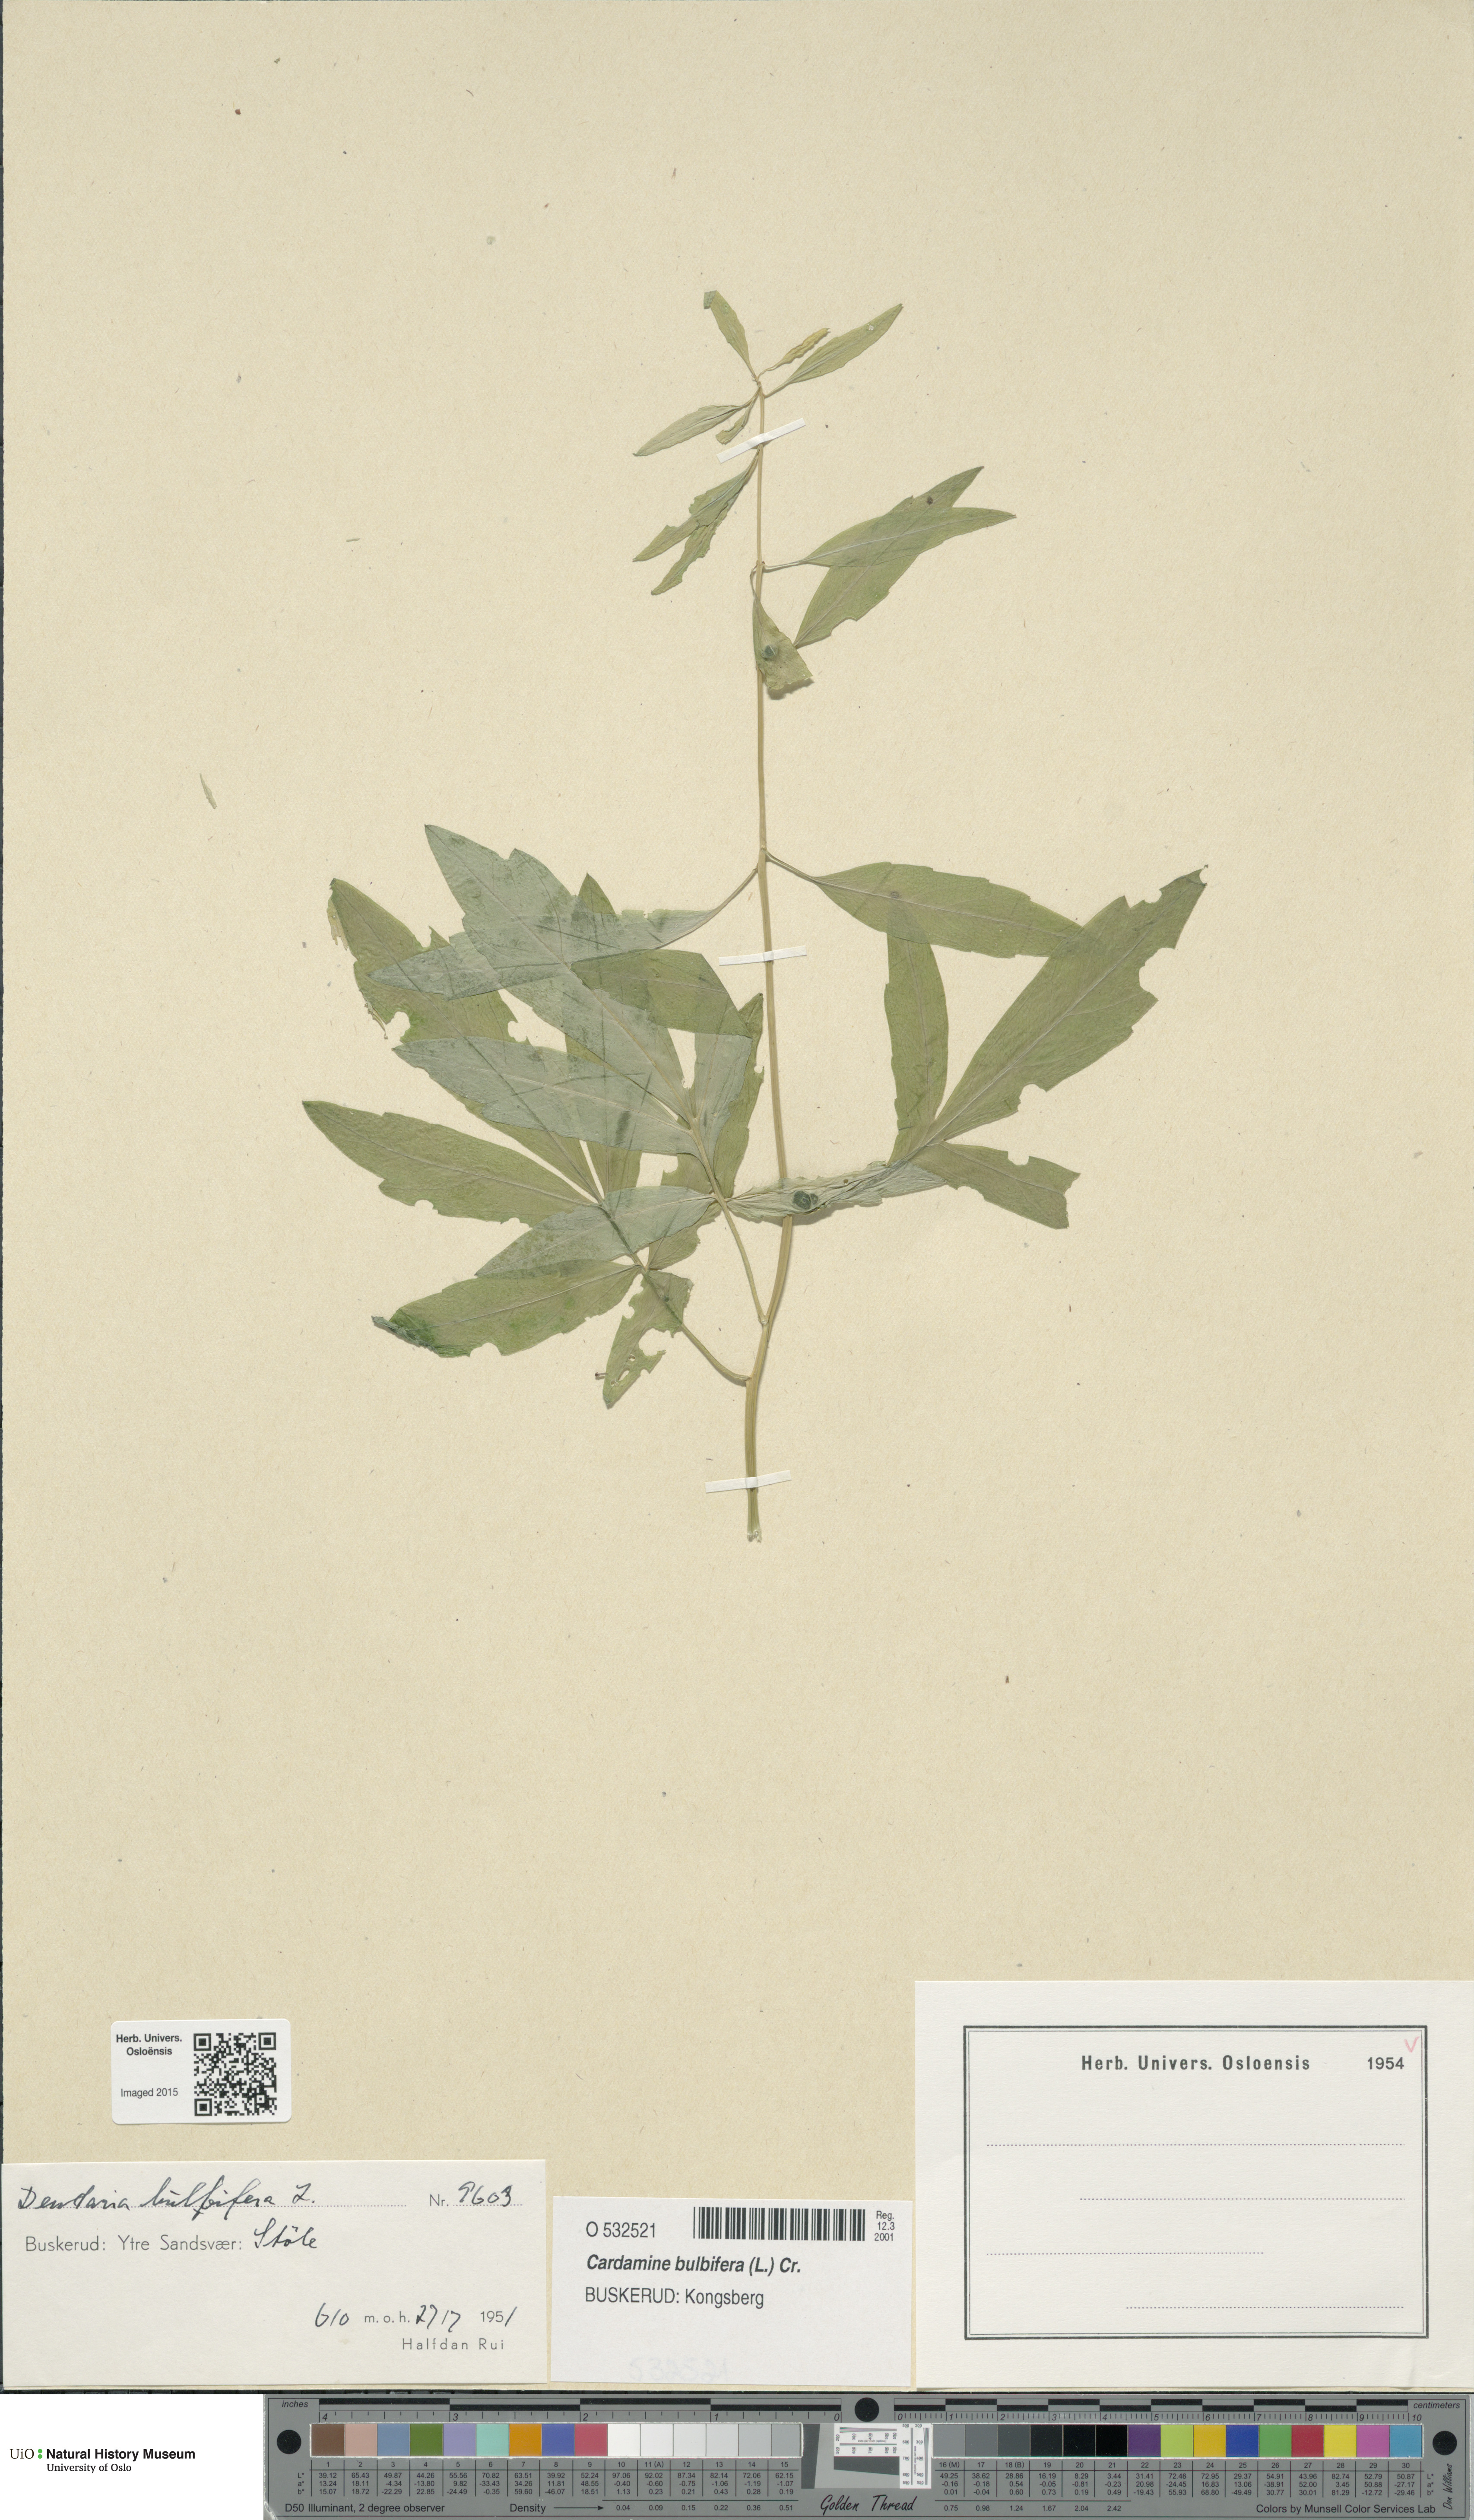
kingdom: Plantae
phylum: Tracheophyta
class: Magnoliopsida
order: Brassicales
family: Brassicaceae
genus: Cardamine
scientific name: Cardamine bulbifera
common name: Coralroot bittercress
